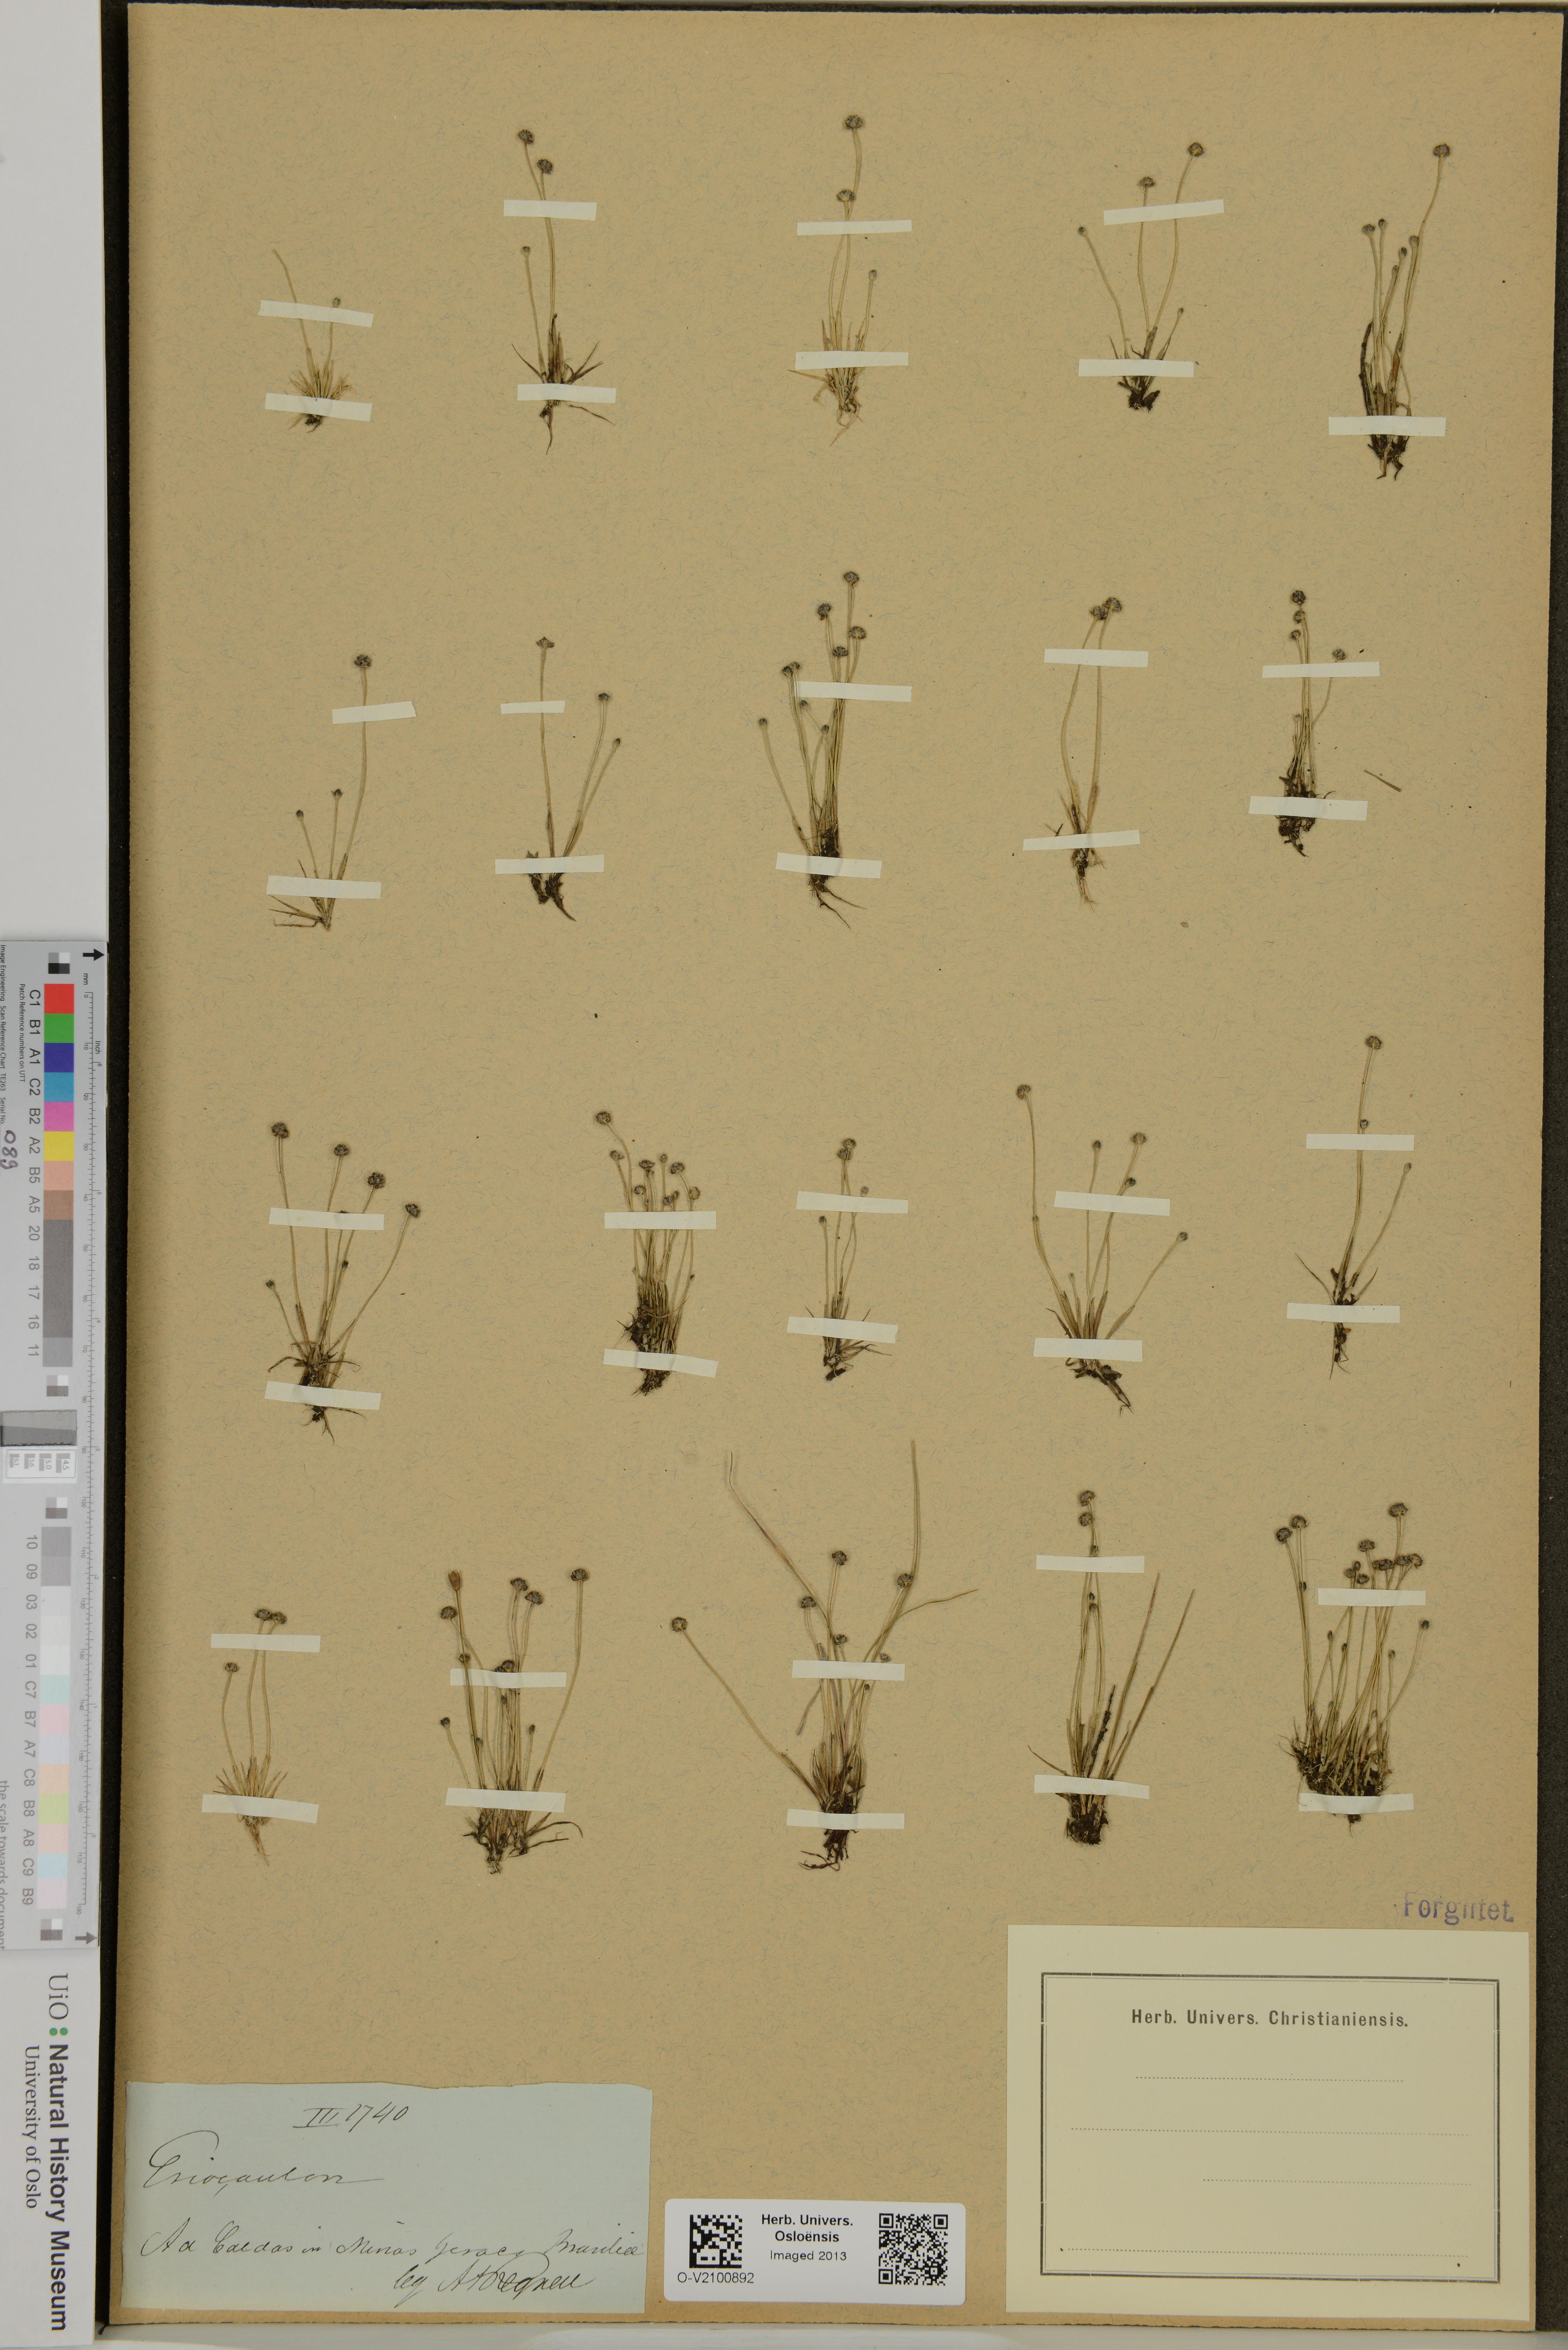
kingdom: Plantae
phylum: Tracheophyta
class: Liliopsida
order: Poales
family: Eriocaulaceae
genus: Eriocaulon
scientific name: Eriocaulon
